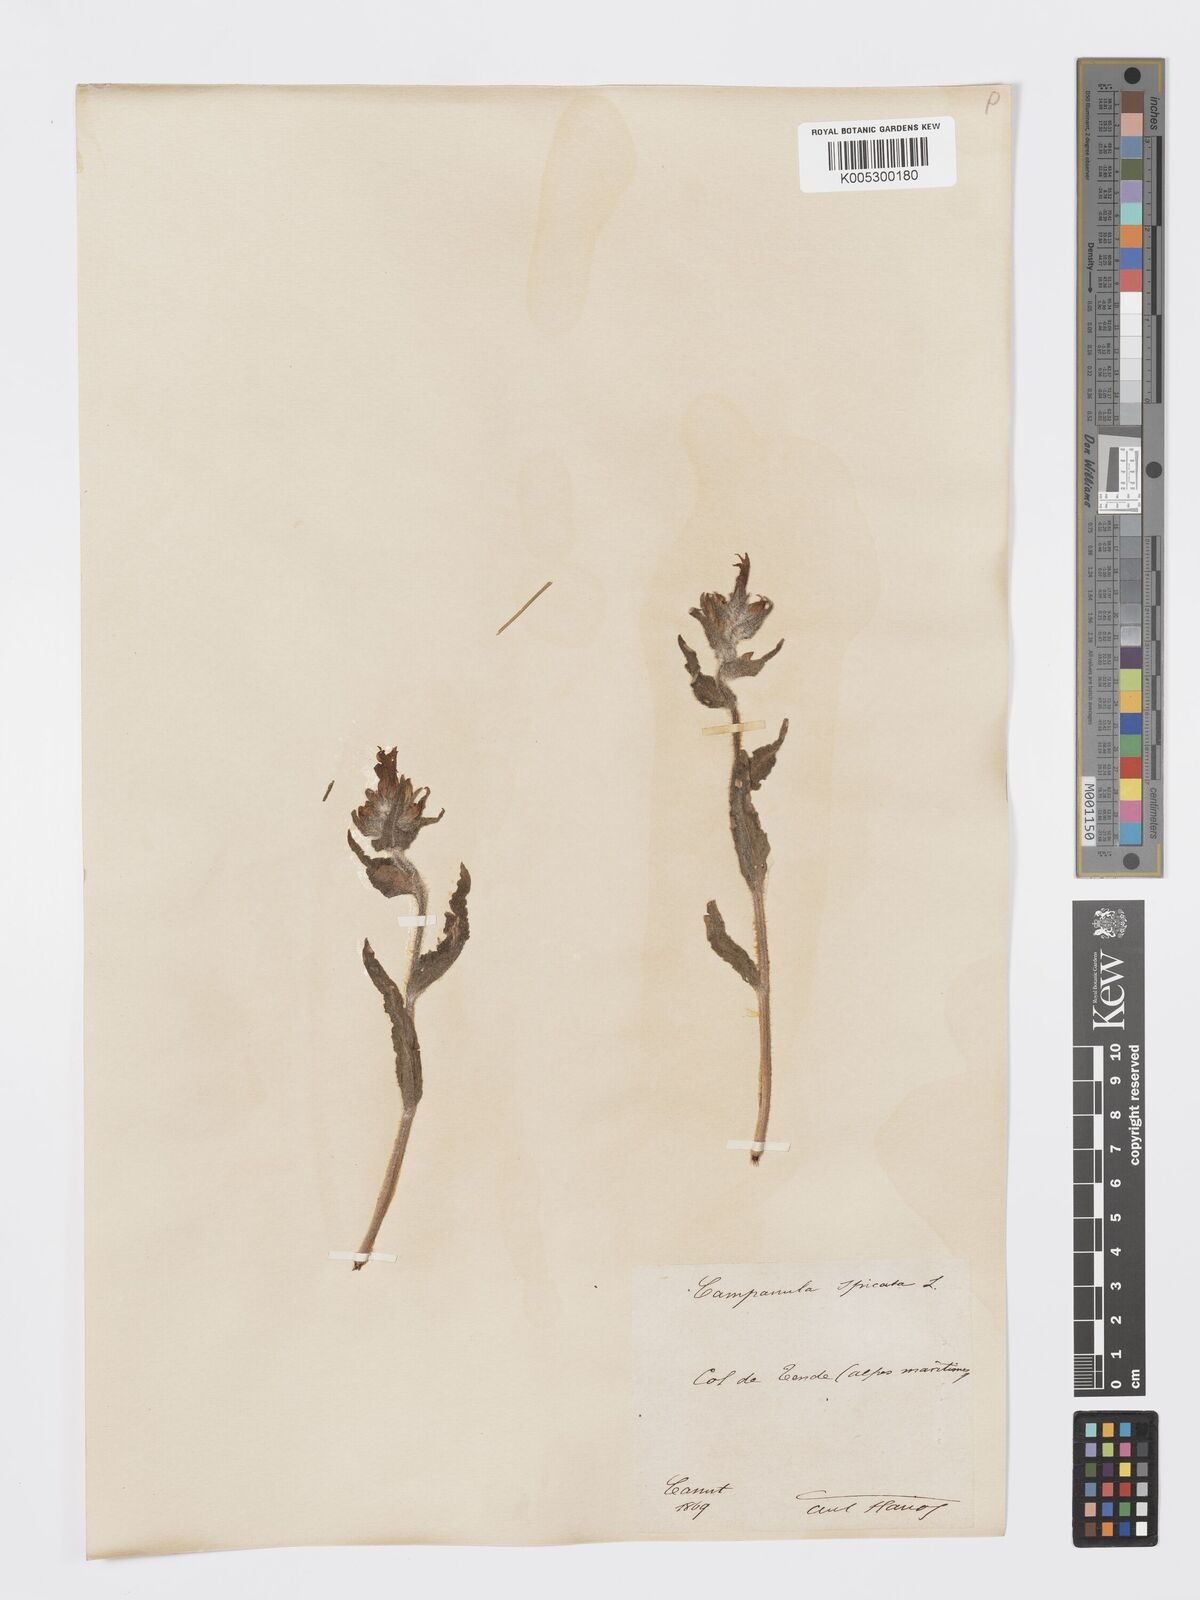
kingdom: Plantae
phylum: Tracheophyta
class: Magnoliopsida
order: Asterales
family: Campanulaceae
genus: Campanula
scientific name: Campanula spicata
